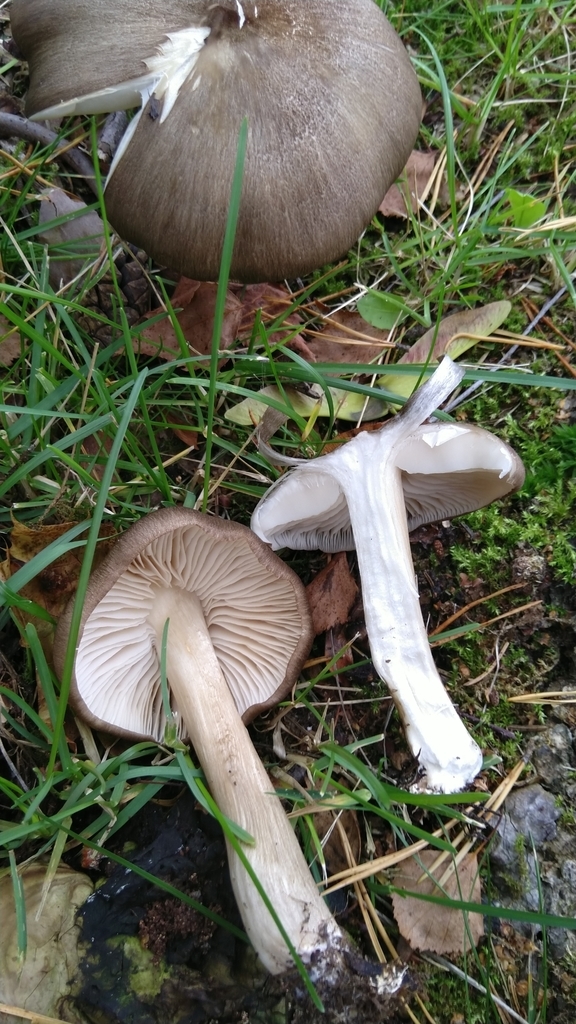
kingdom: Fungi
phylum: Basidiomycota
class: Agaricomycetes
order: Agaricales
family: Tricholomataceae
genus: Megacollybia
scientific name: Megacollybia platyphylla
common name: Whitelaced shank
